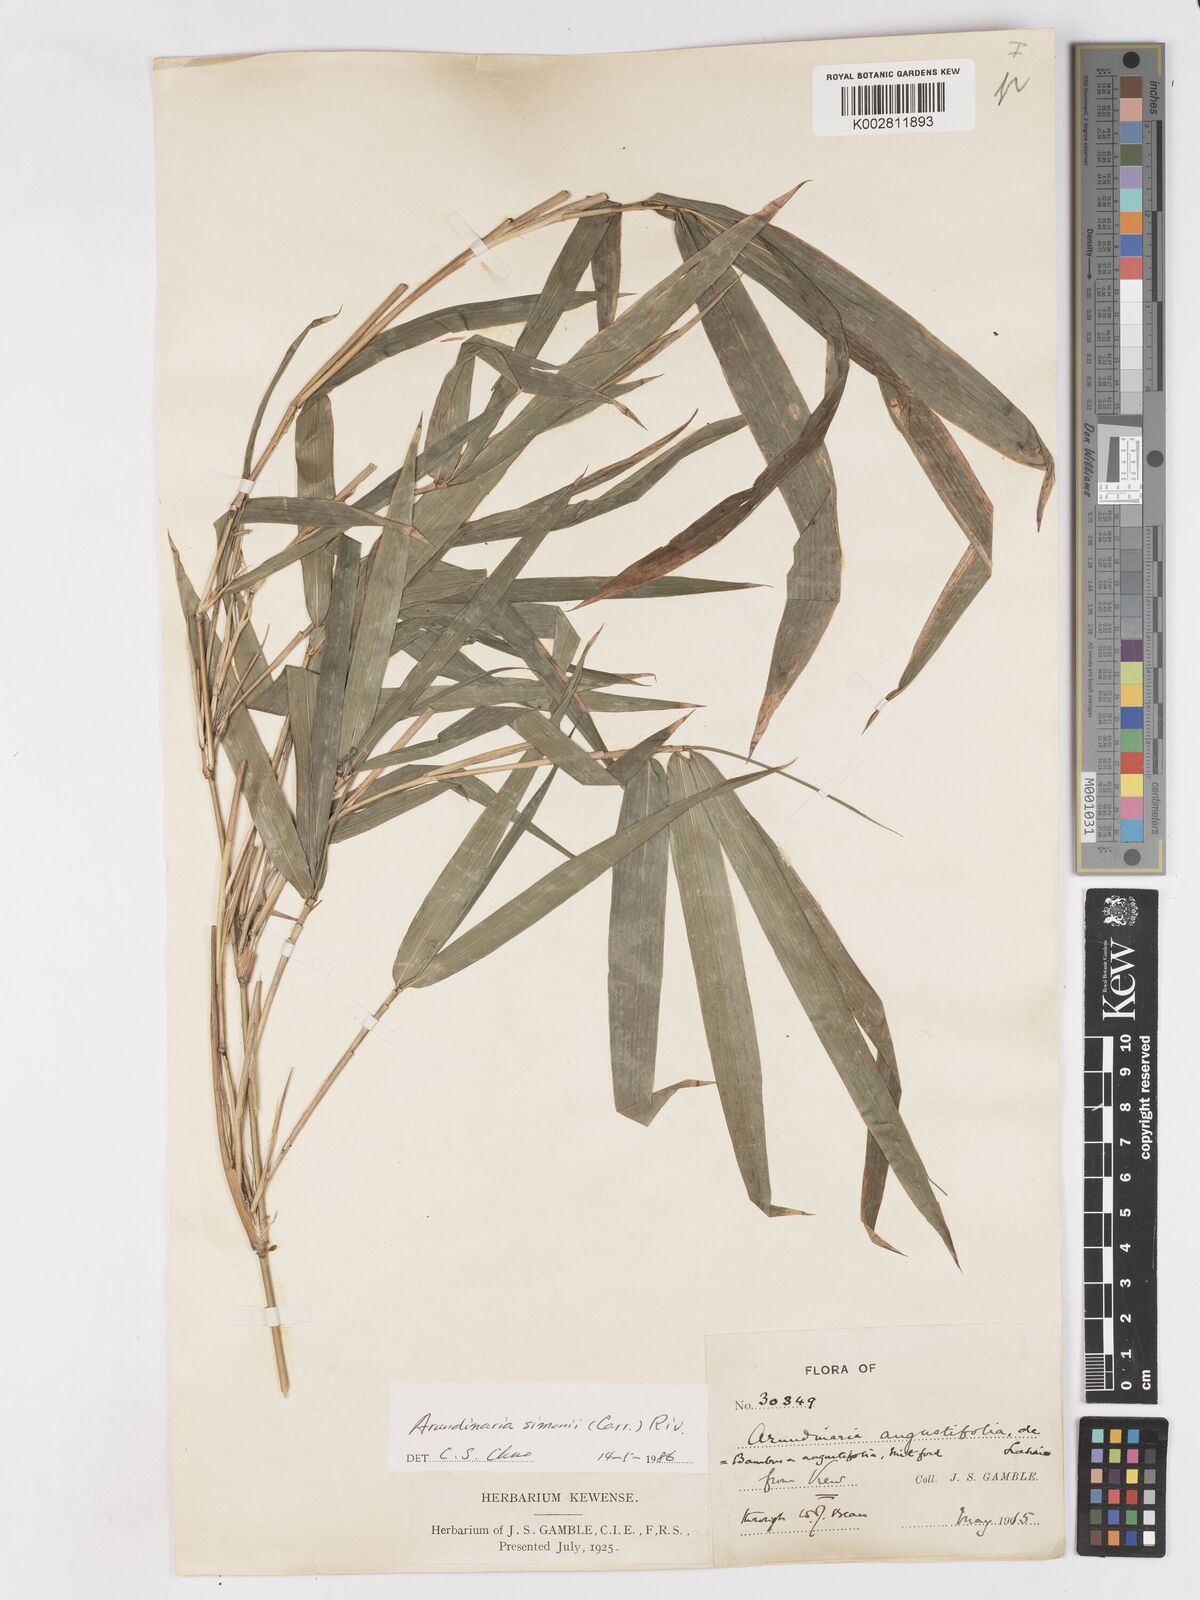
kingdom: Plantae
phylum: Tracheophyta
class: Liliopsida
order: Poales
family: Poaceae
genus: Pleioblastus
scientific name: Pleioblastus simonii
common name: Simon bamboo
